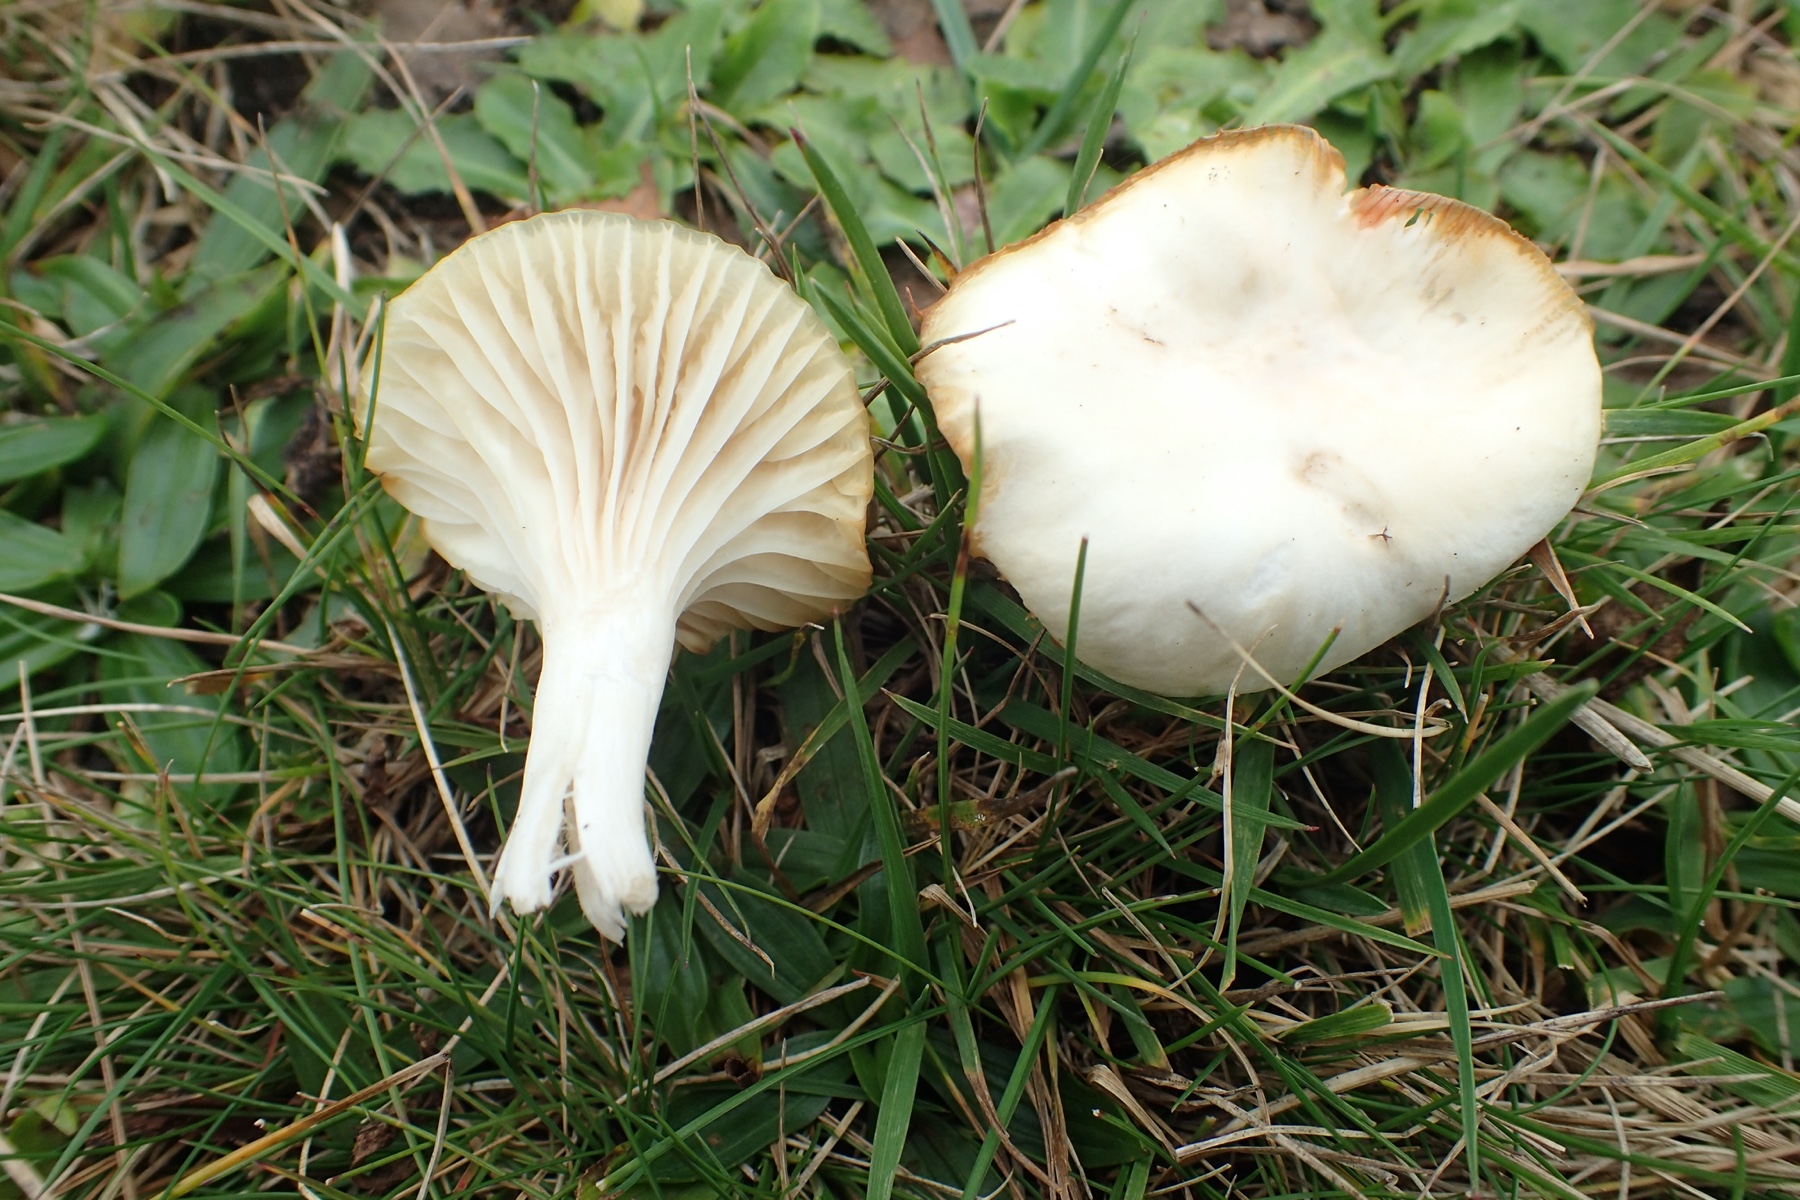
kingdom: Fungi
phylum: Basidiomycota
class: Agaricomycetes
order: Agaricales
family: Hygrophoraceae
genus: Cuphophyllus
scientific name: Cuphophyllus virgineus
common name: snehvid vokshat
